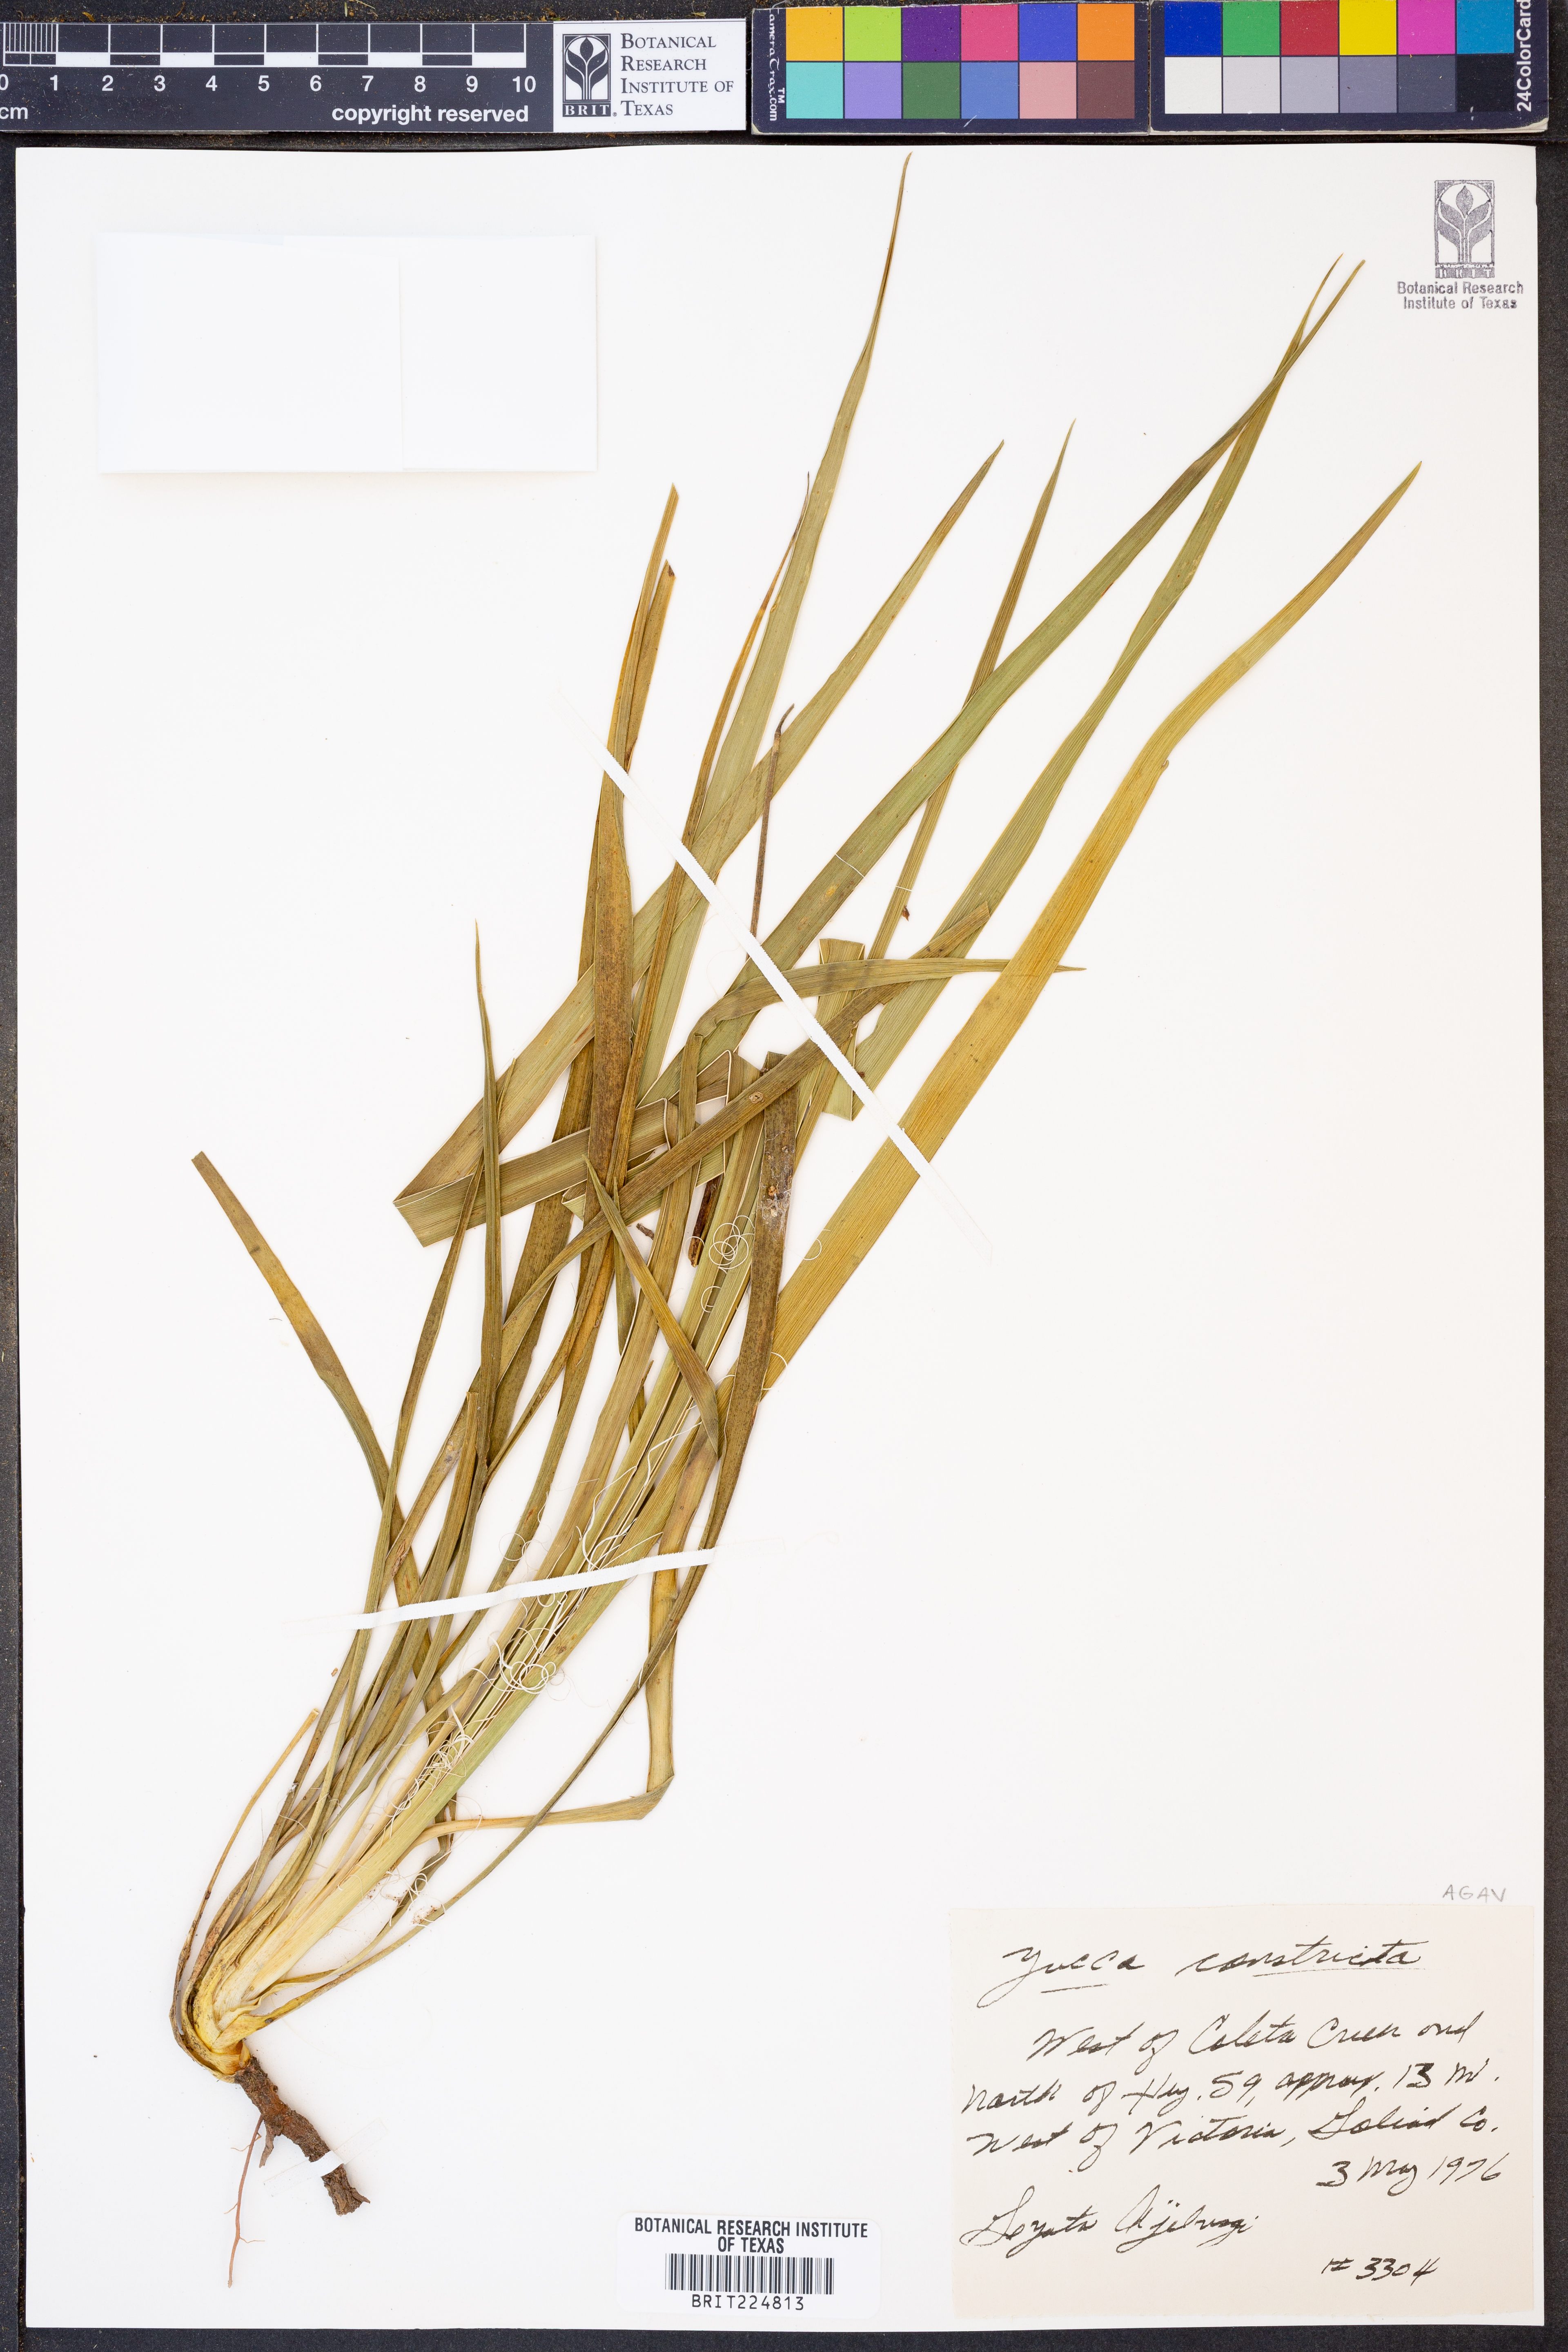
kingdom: Plantae
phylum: Tracheophyta
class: Liliopsida
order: Asparagales
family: Asparagaceae
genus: Yucca
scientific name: Yucca constricta
